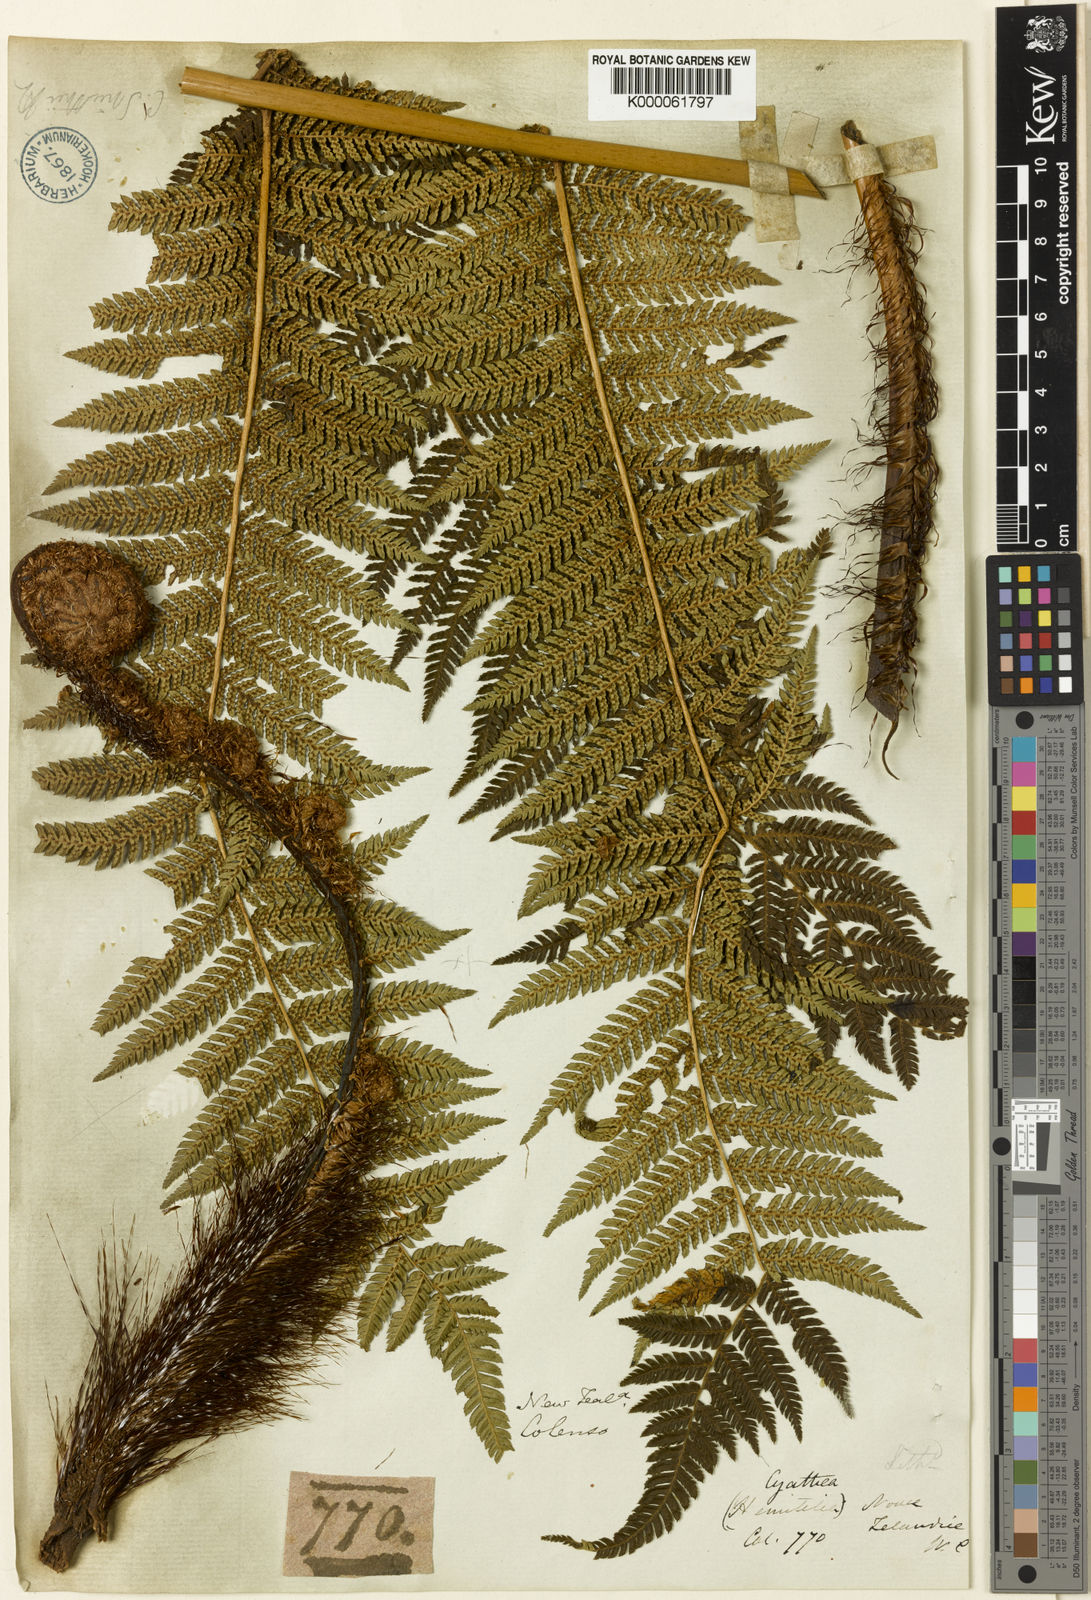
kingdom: Plantae
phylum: Tracheophyta
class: Polypodiopsida
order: Cyatheales
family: Cyatheaceae
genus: Alsophila
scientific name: Alsophila smithii
